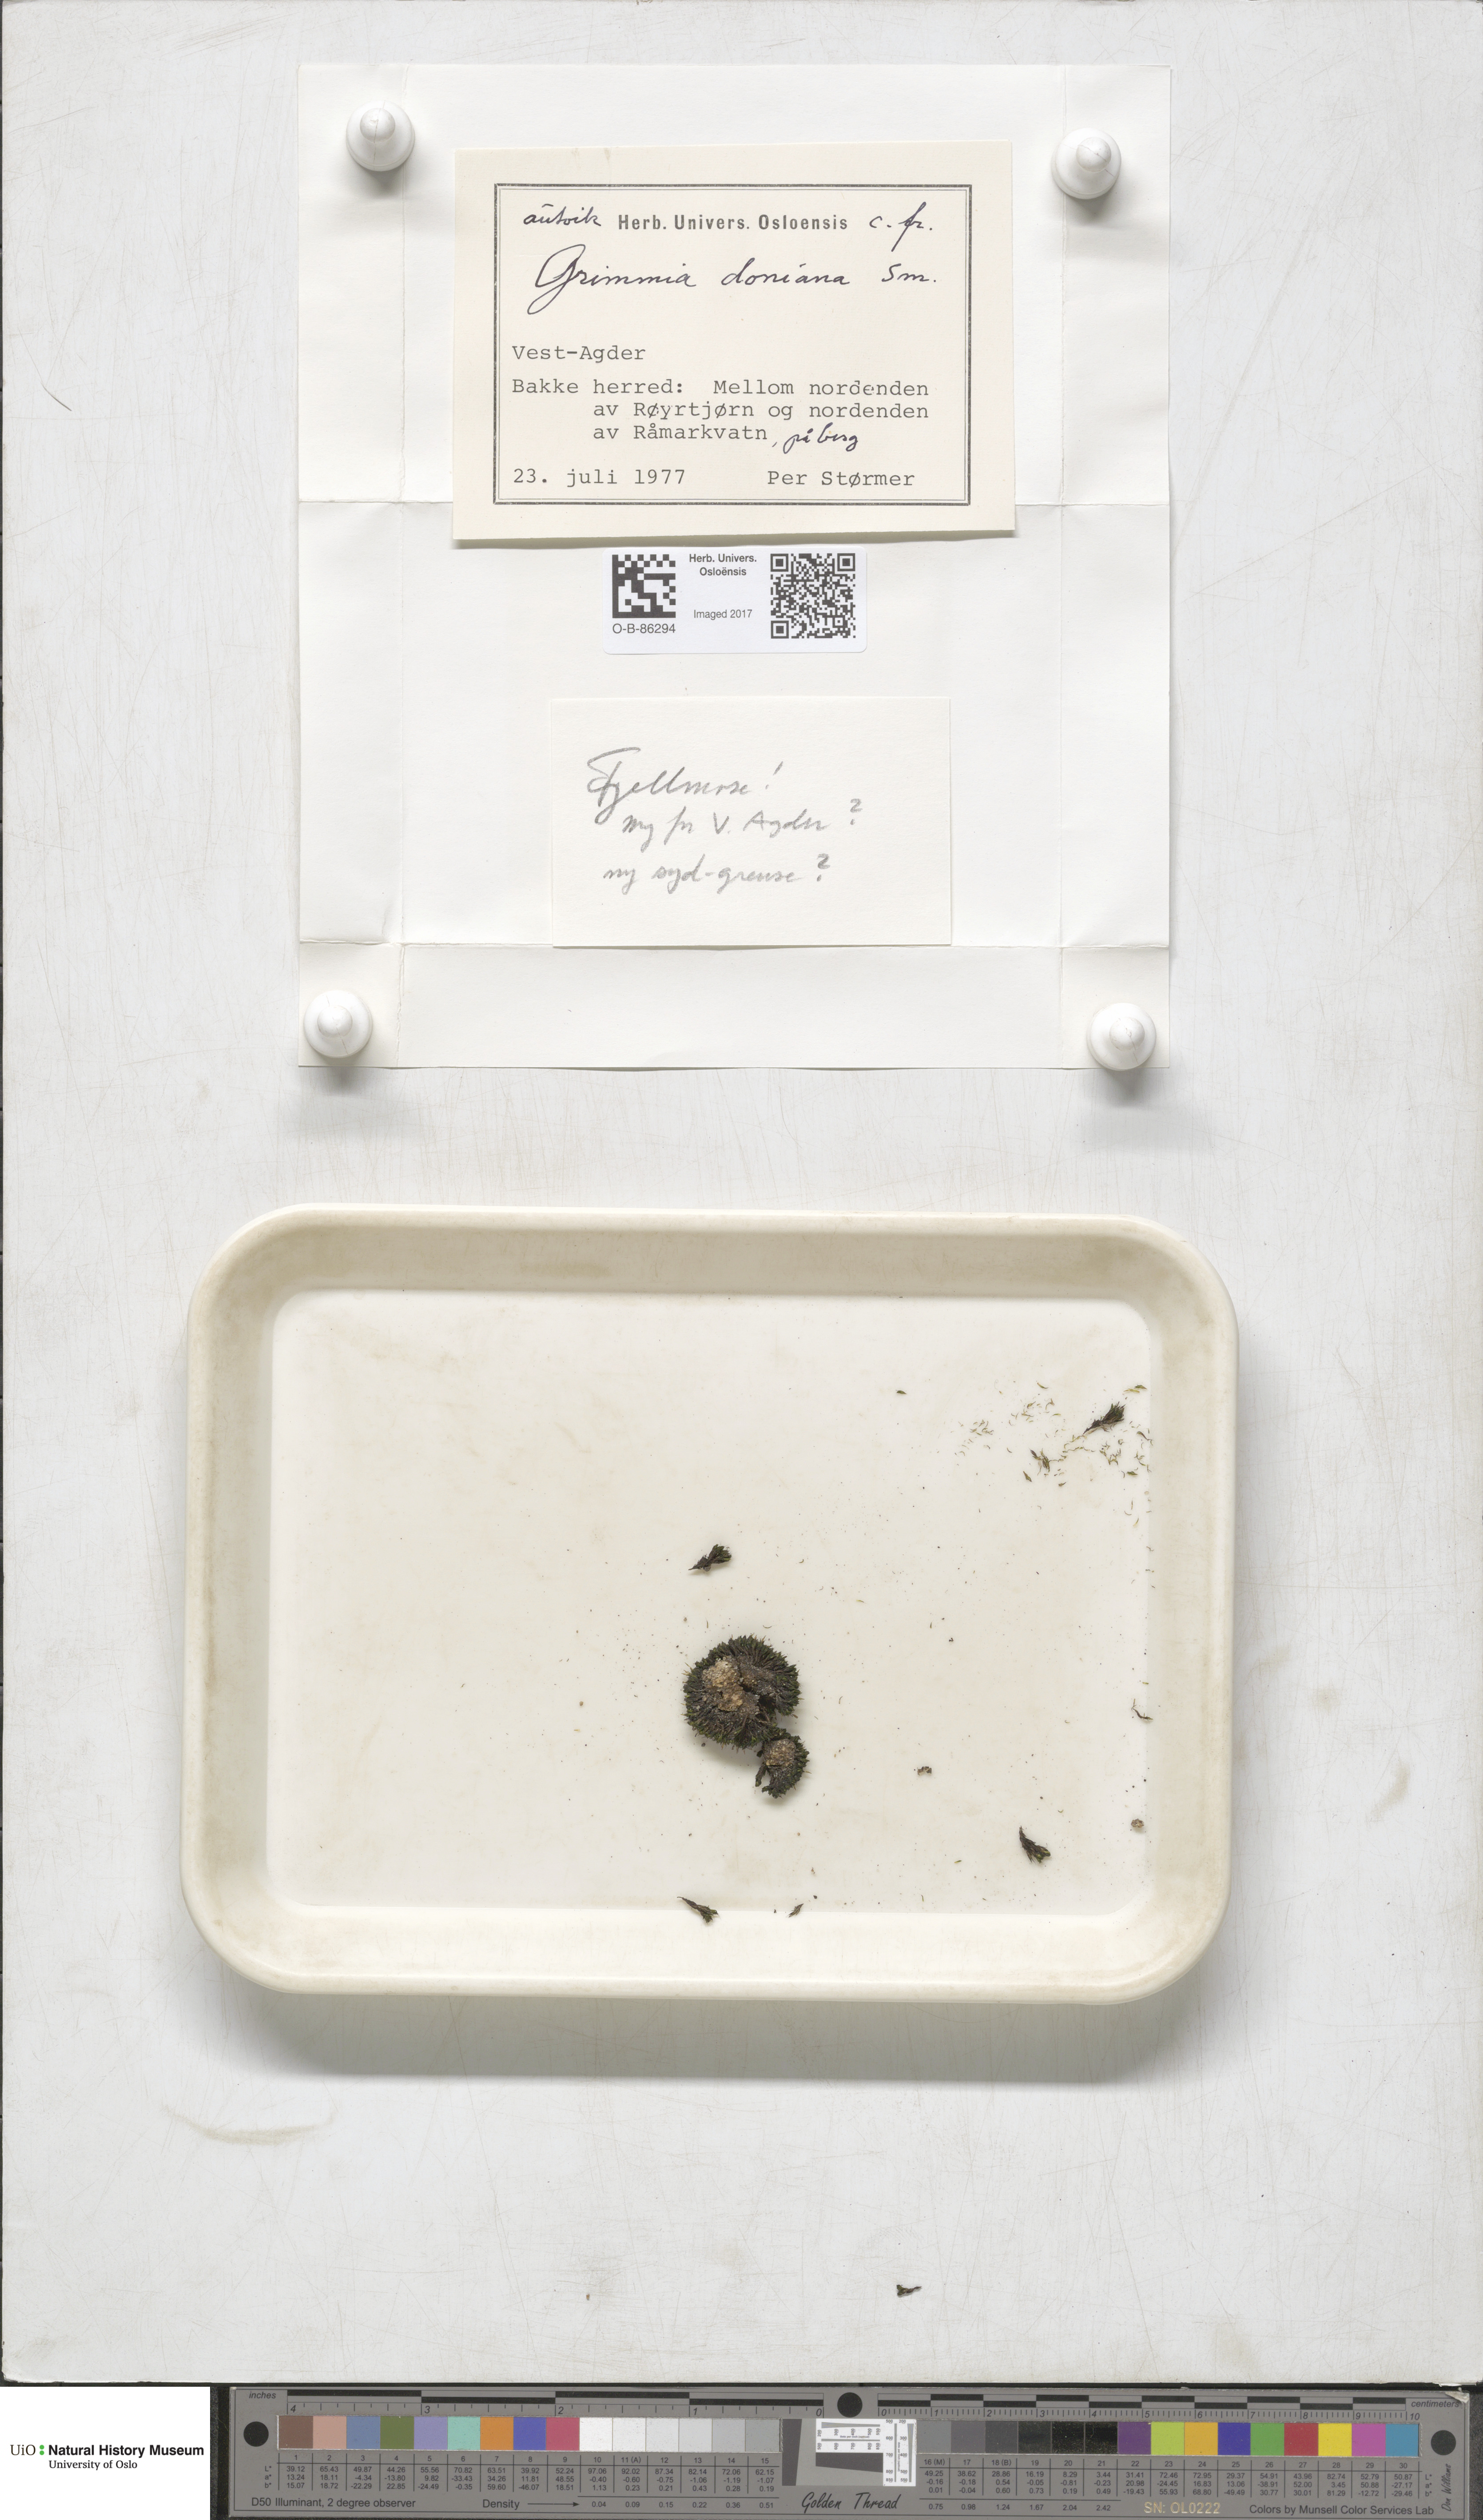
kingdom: Plantae
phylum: Bryophyta
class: Bryopsida
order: Grimmiales
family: Grimmiaceae
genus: Grimmia
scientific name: Grimmia donniana
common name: Donn's grimmia
